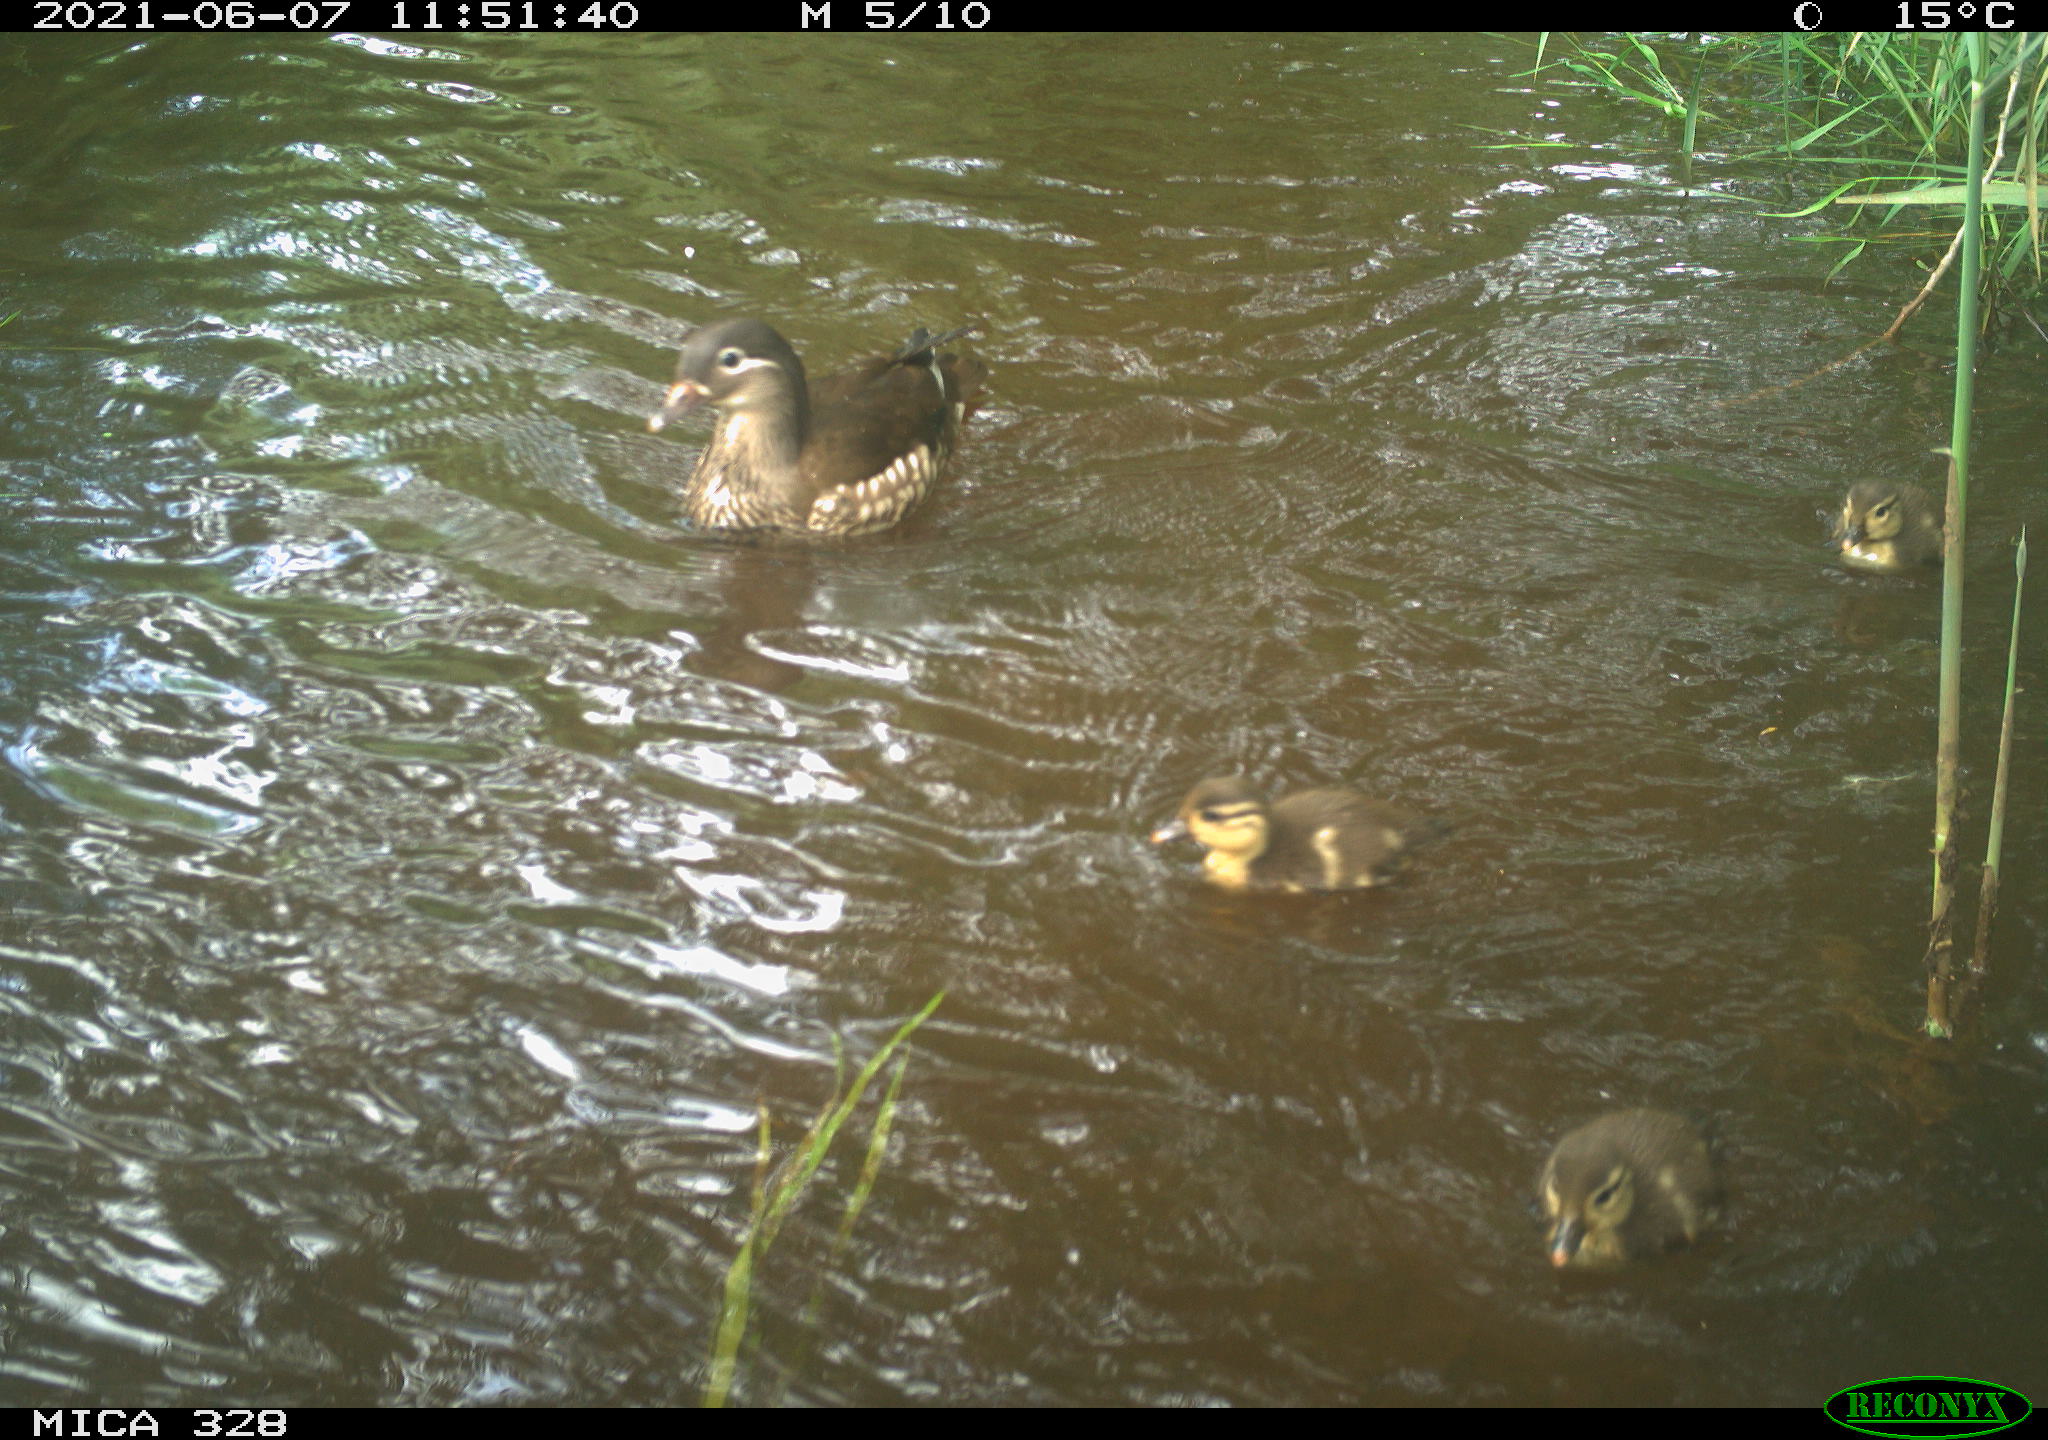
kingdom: Animalia
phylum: Chordata
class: Aves
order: Anseriformes
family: Anatidae
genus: Aix
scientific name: Aix galericulata
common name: Mandarin duck
